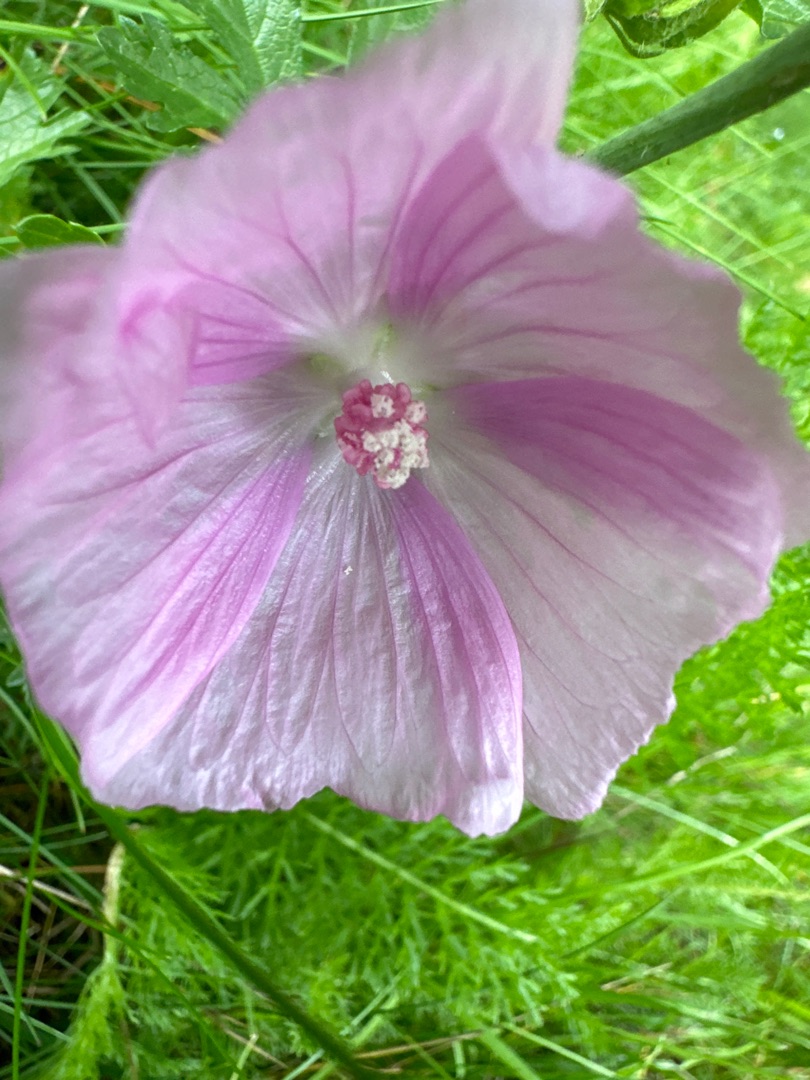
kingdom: Plantae
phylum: Tracheophyta
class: Magnoliopsida
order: Malvales
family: Malvaceae
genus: Malva
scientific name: Malva
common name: Katostslægten
